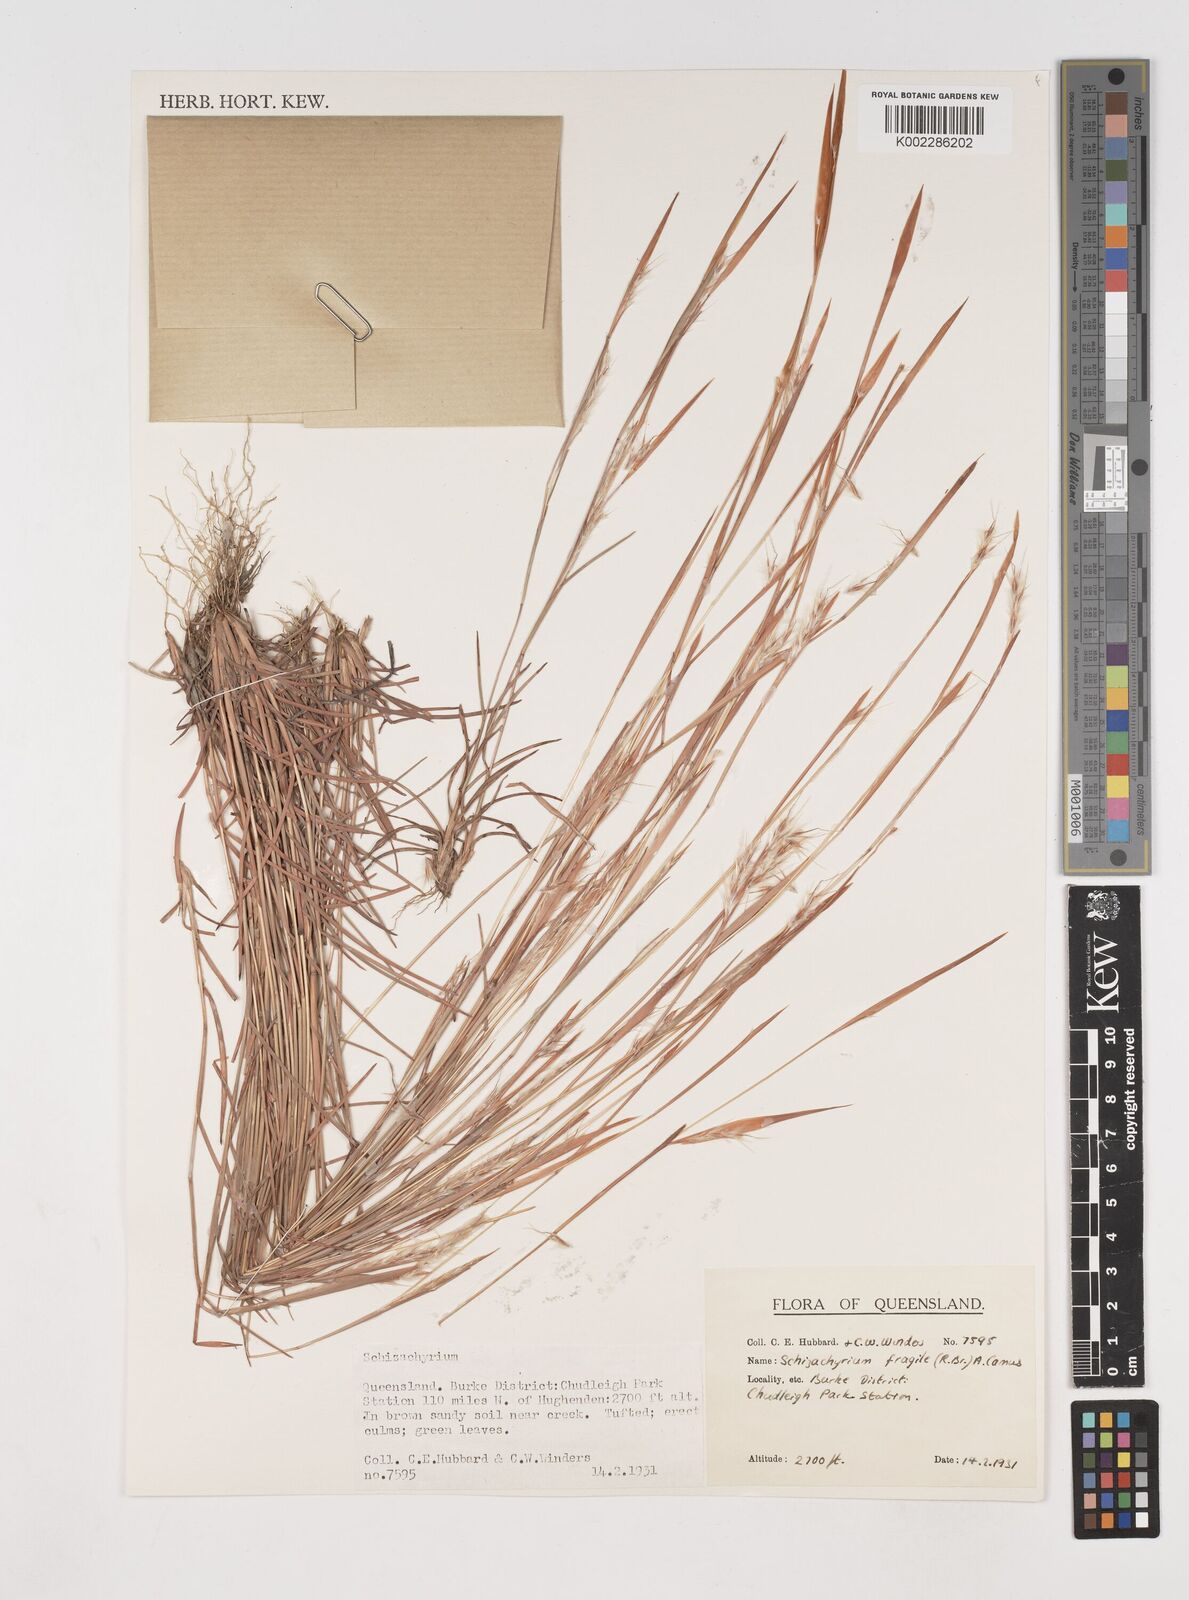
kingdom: Plantae
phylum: Tracheophyta
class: Liliopsida
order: Poales
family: Poaceae
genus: Schizachyrium
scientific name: Schizachyrium fragile
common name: Red spathe grass
